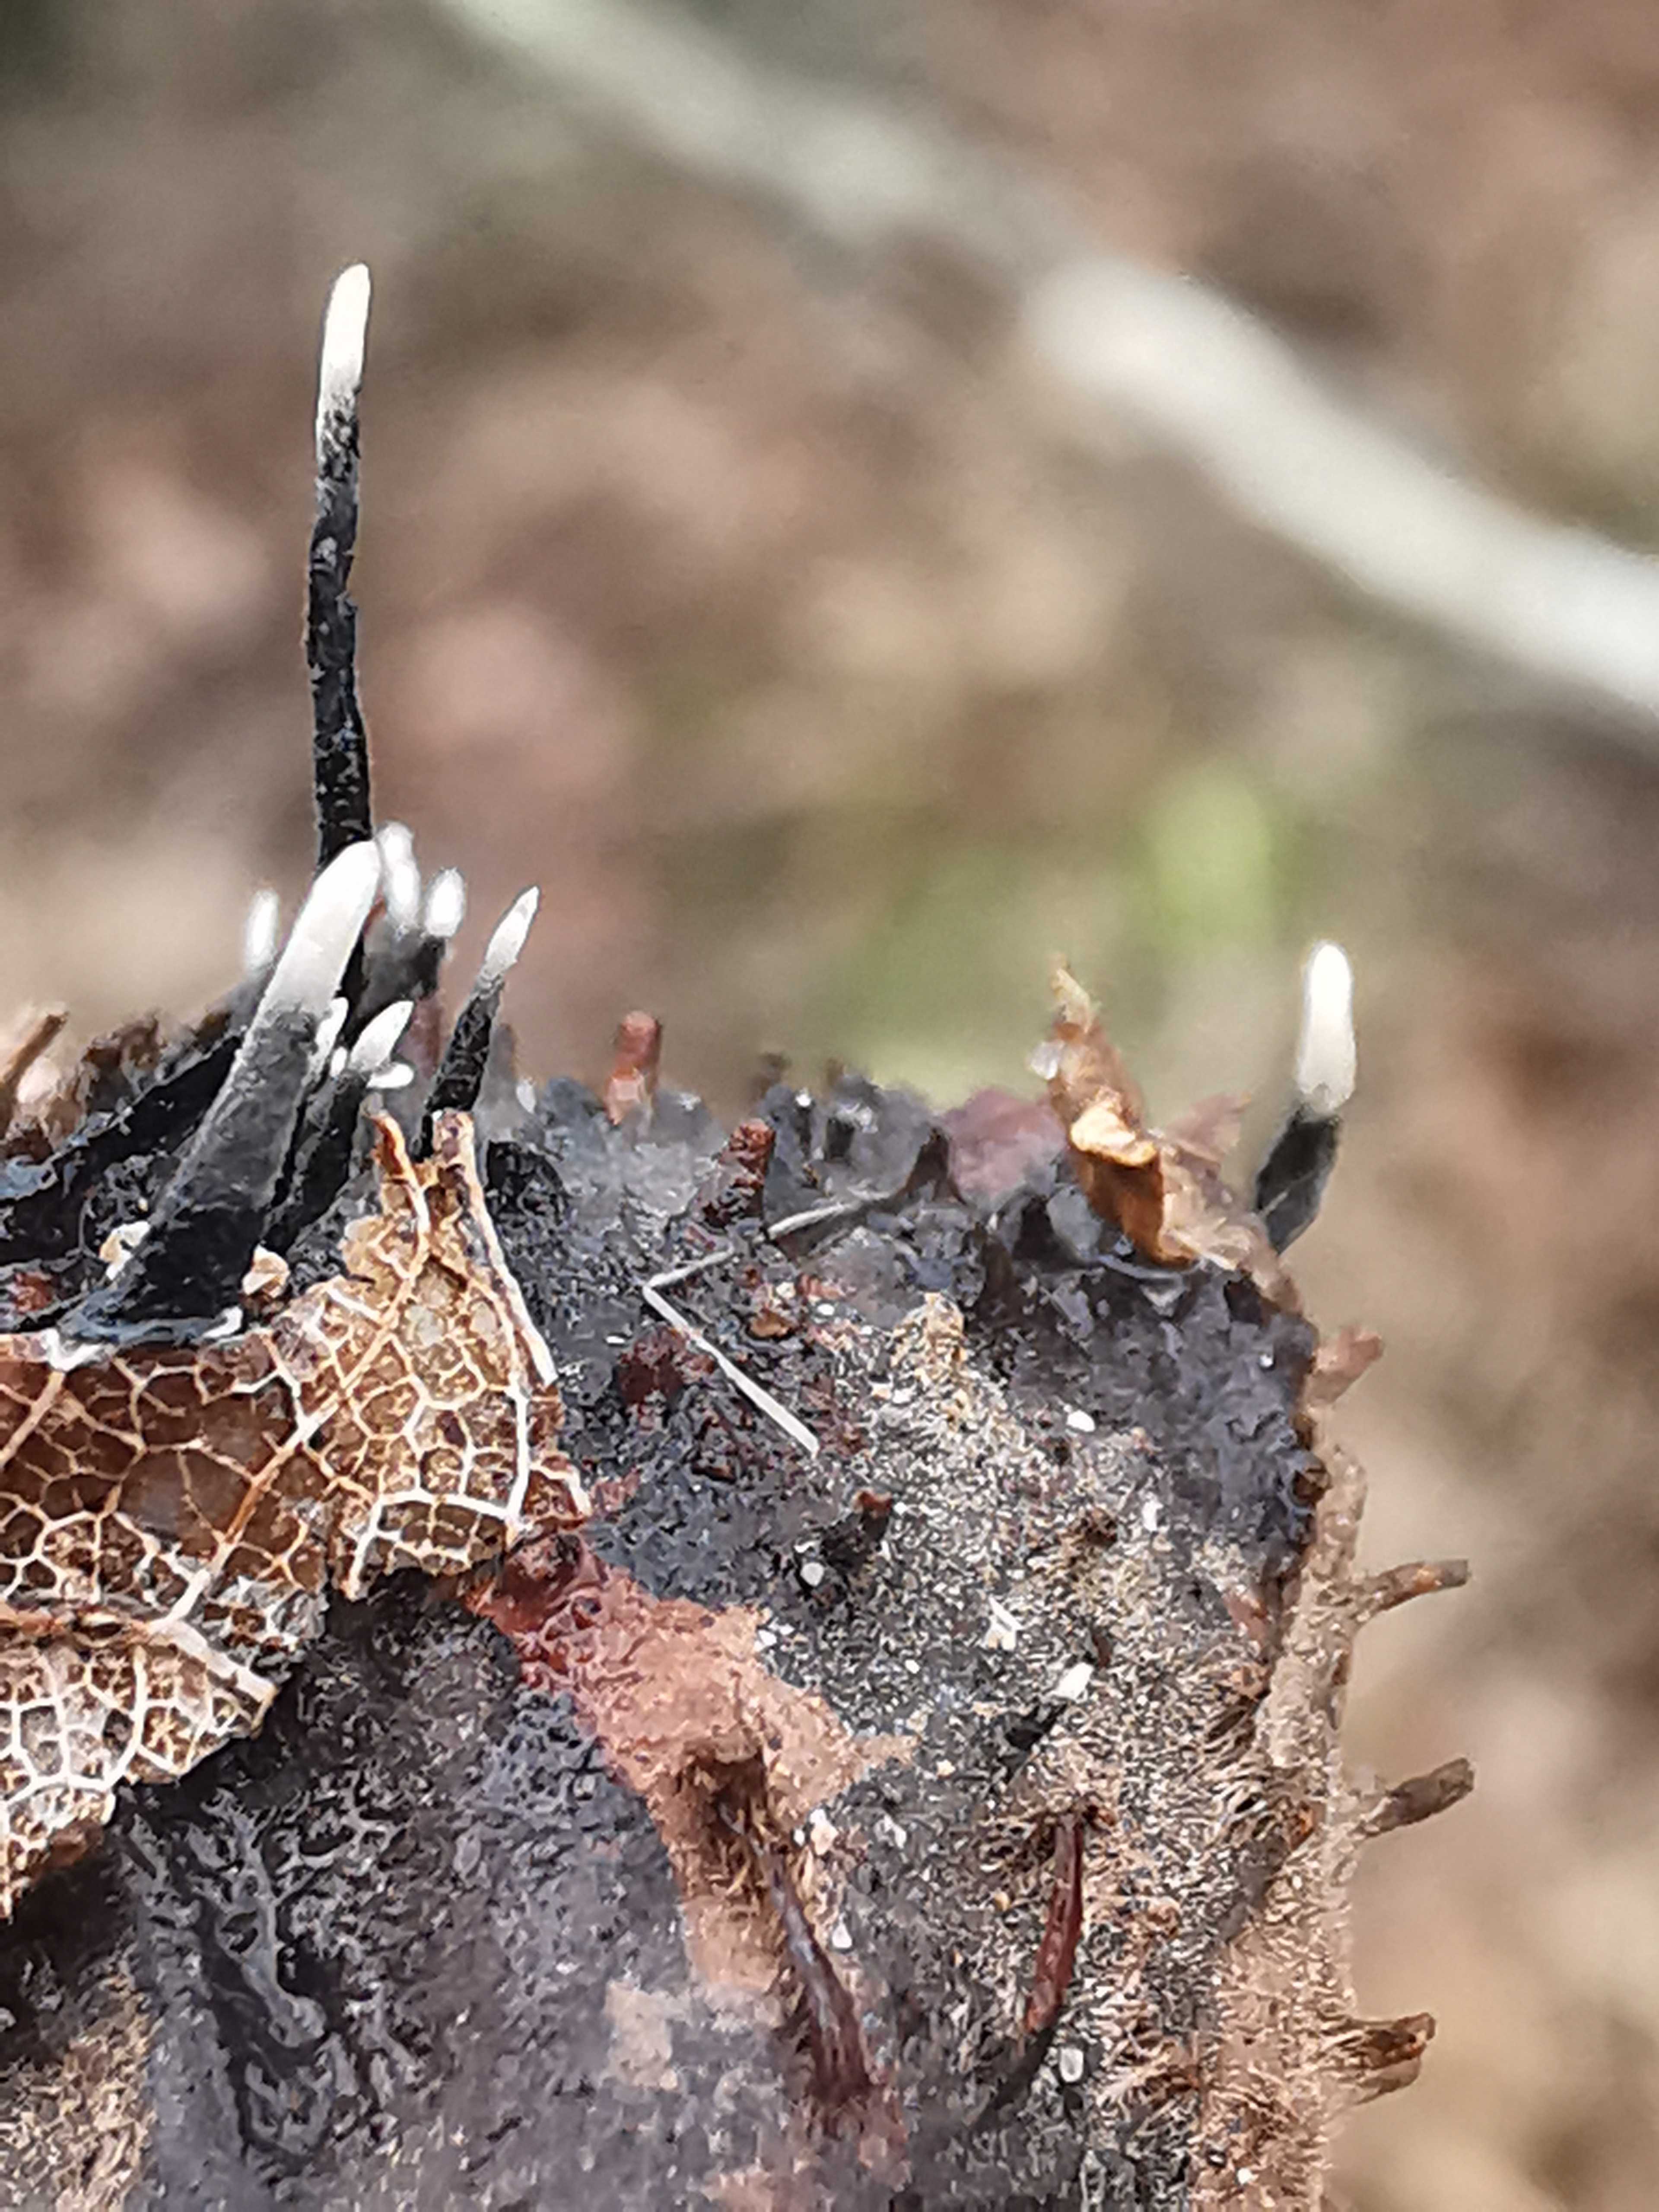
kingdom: Fungi
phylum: Ascomycota
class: Sordariomycetes
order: Xylariales
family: Xylariaceae
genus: Xylaria
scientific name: Xylaria carpophila
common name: bogskål-stødsvamp
